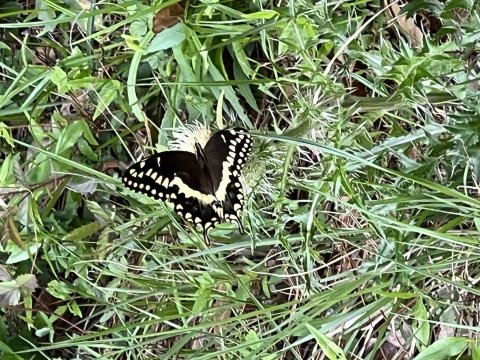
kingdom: Animalia
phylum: Arthropoda
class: Insecta
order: Lepidoptera
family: Papilionidae
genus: Pterourus
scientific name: Pterourus palamedes
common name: Palamedes Swallowtail
